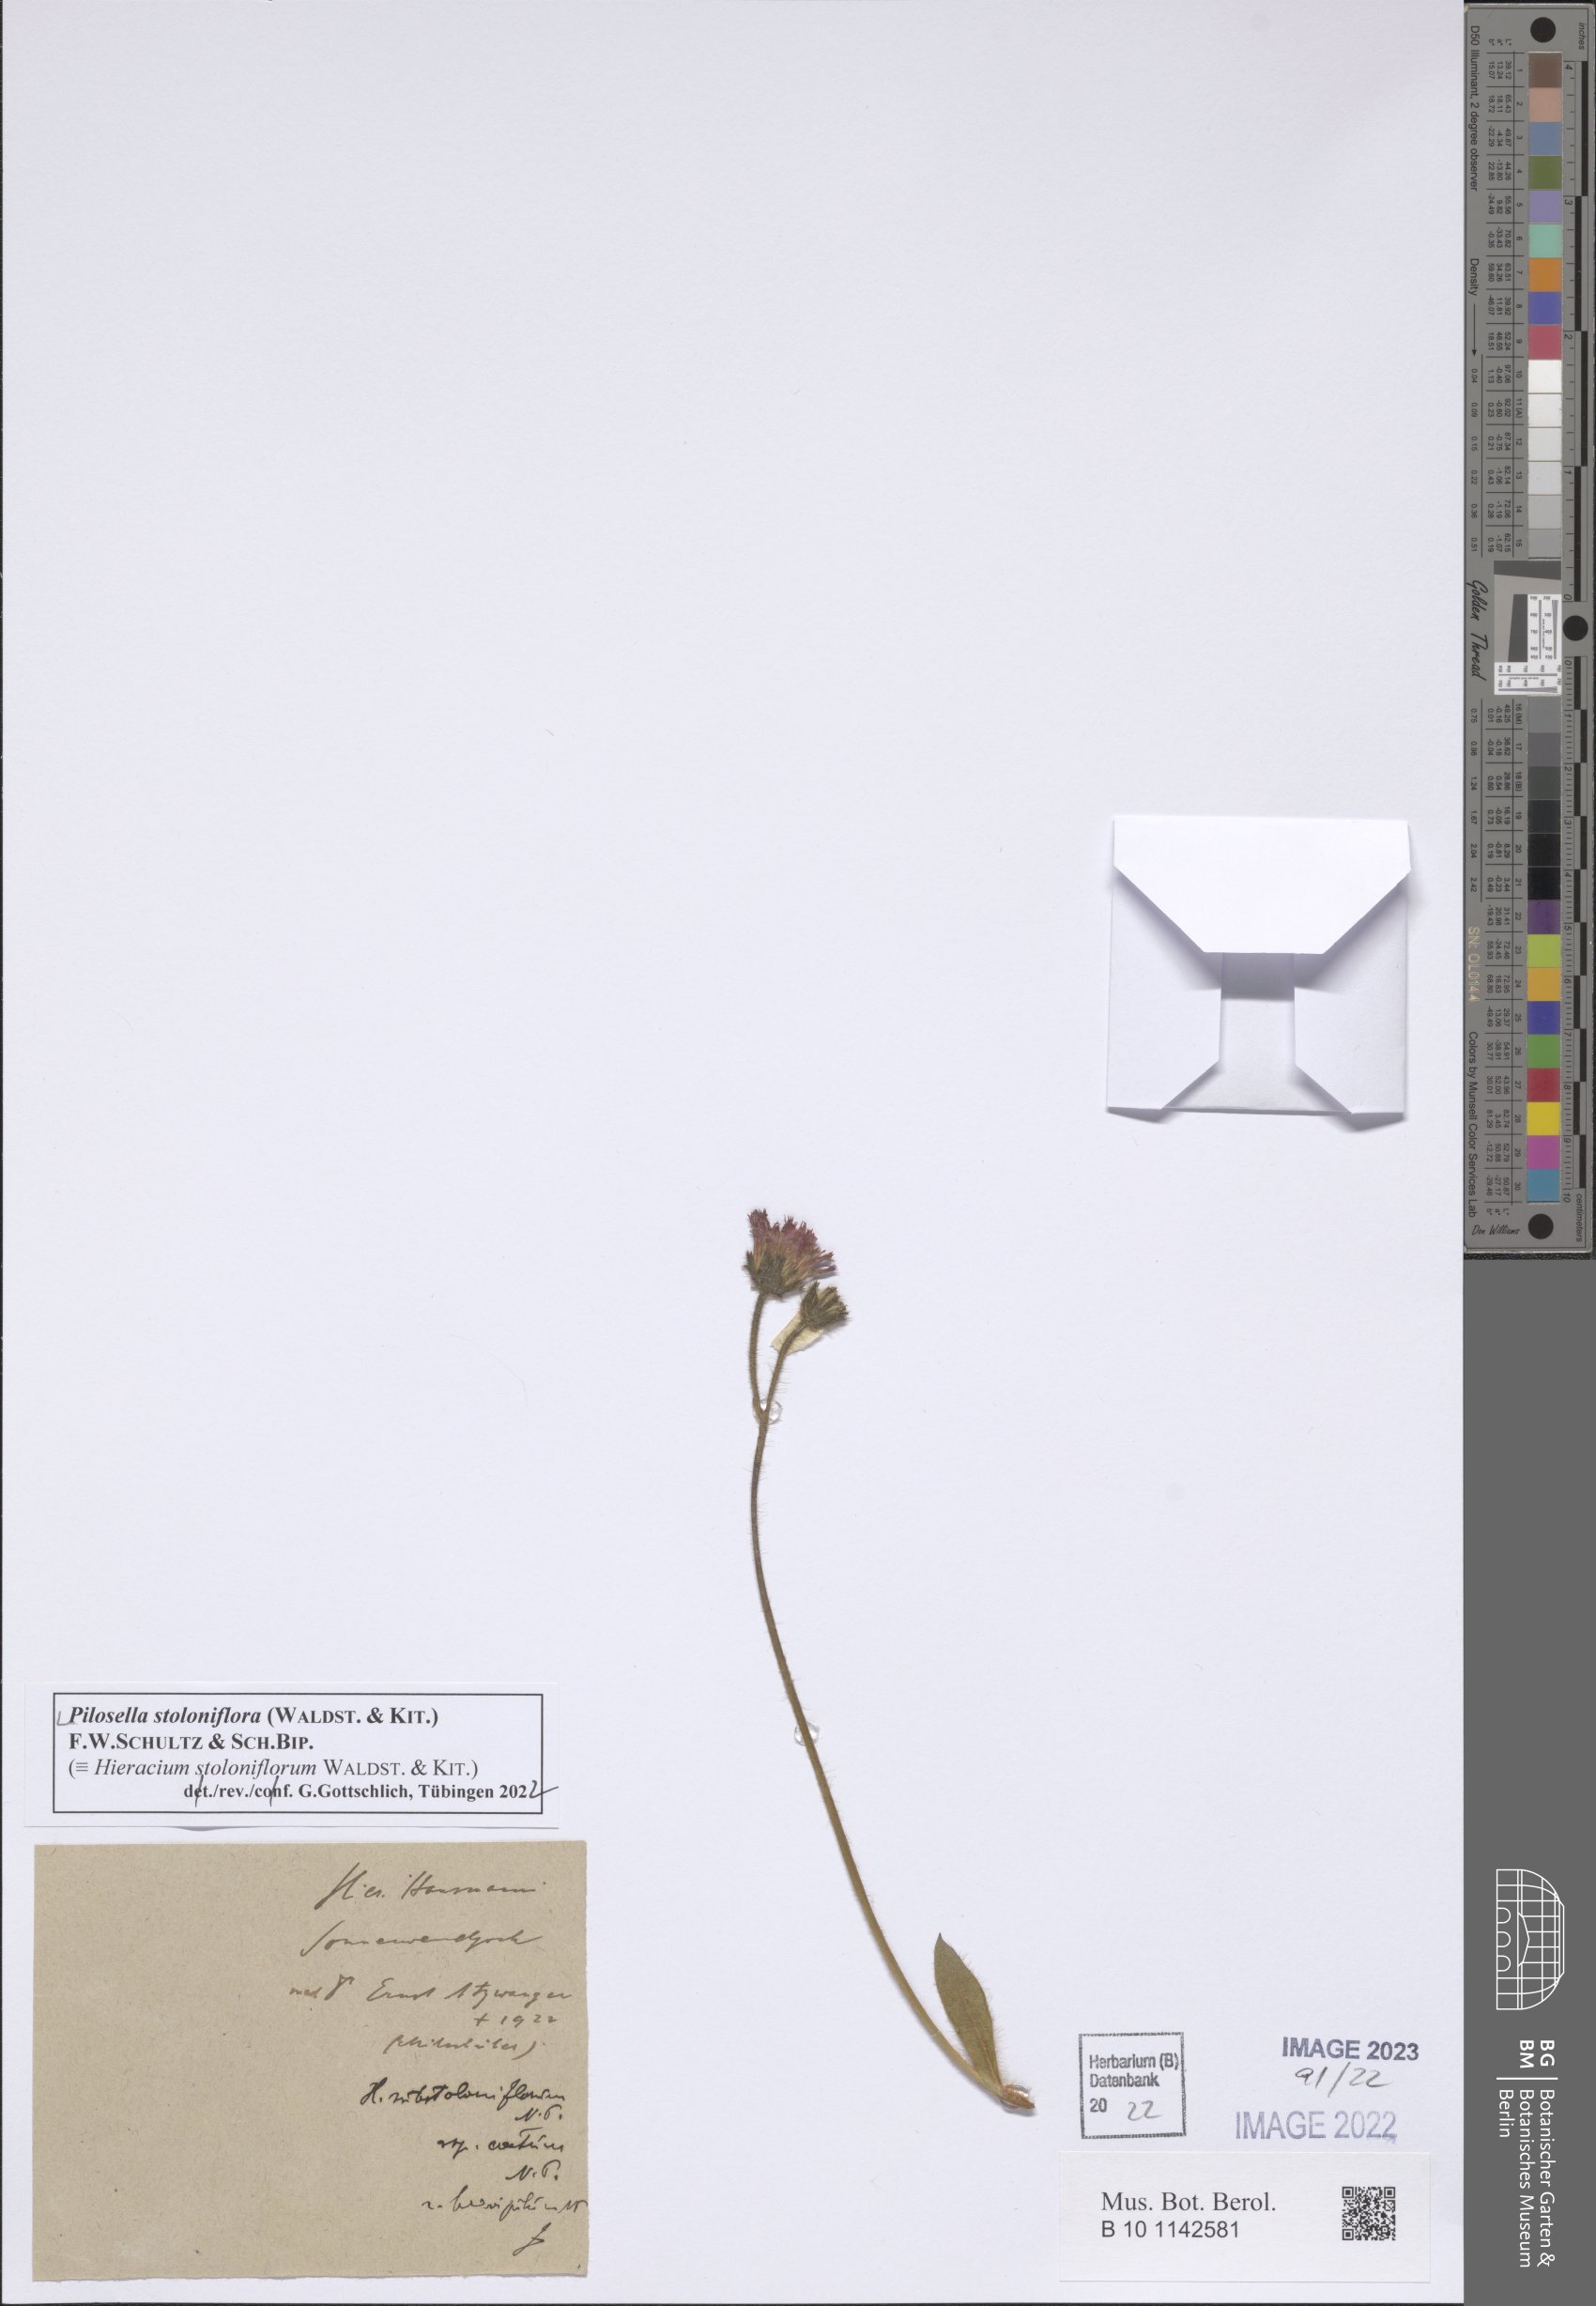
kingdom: Plantae
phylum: Tracheophyta
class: Magnoliopsida
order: Asterales
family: Asteraceae
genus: Pilosella
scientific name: Pilosella stoloniflora
